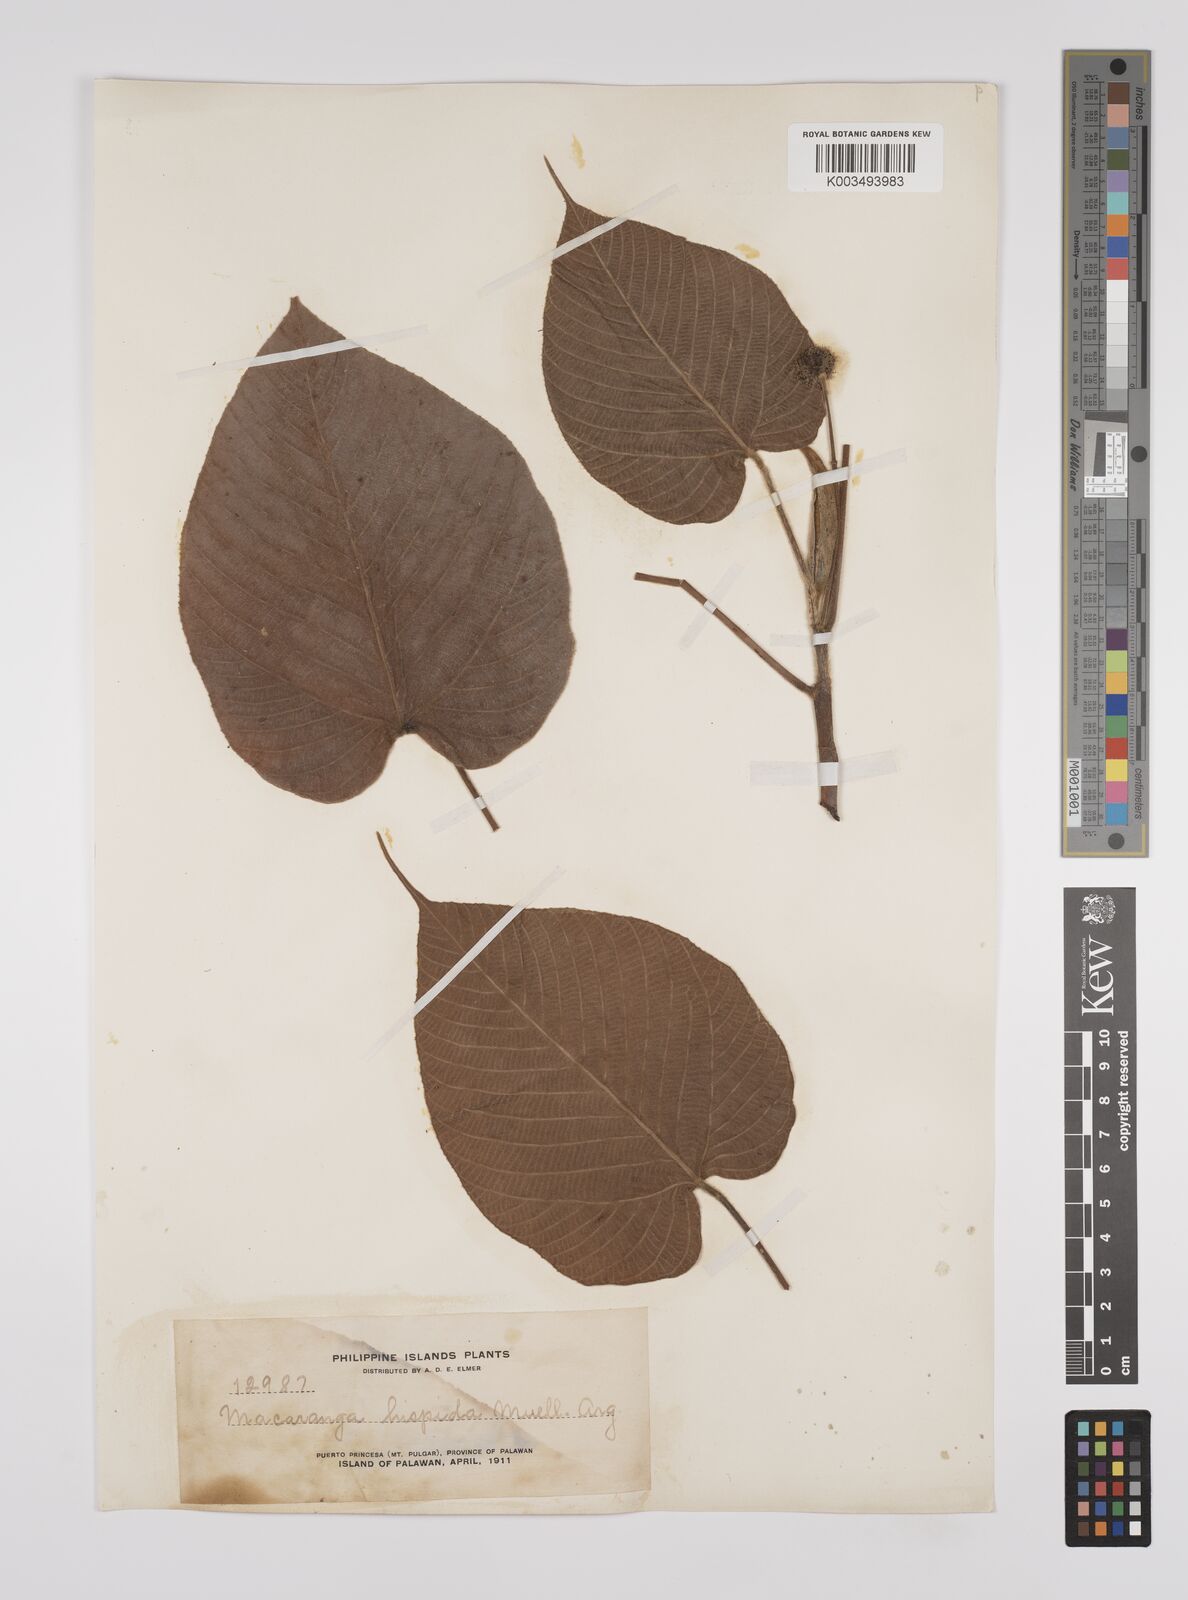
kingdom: Plantae
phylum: Tracheophyta
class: Magnoliopsida
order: Malpighiales
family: Euphorbiaceae
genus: Macaranga
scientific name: Macaranga hispida
